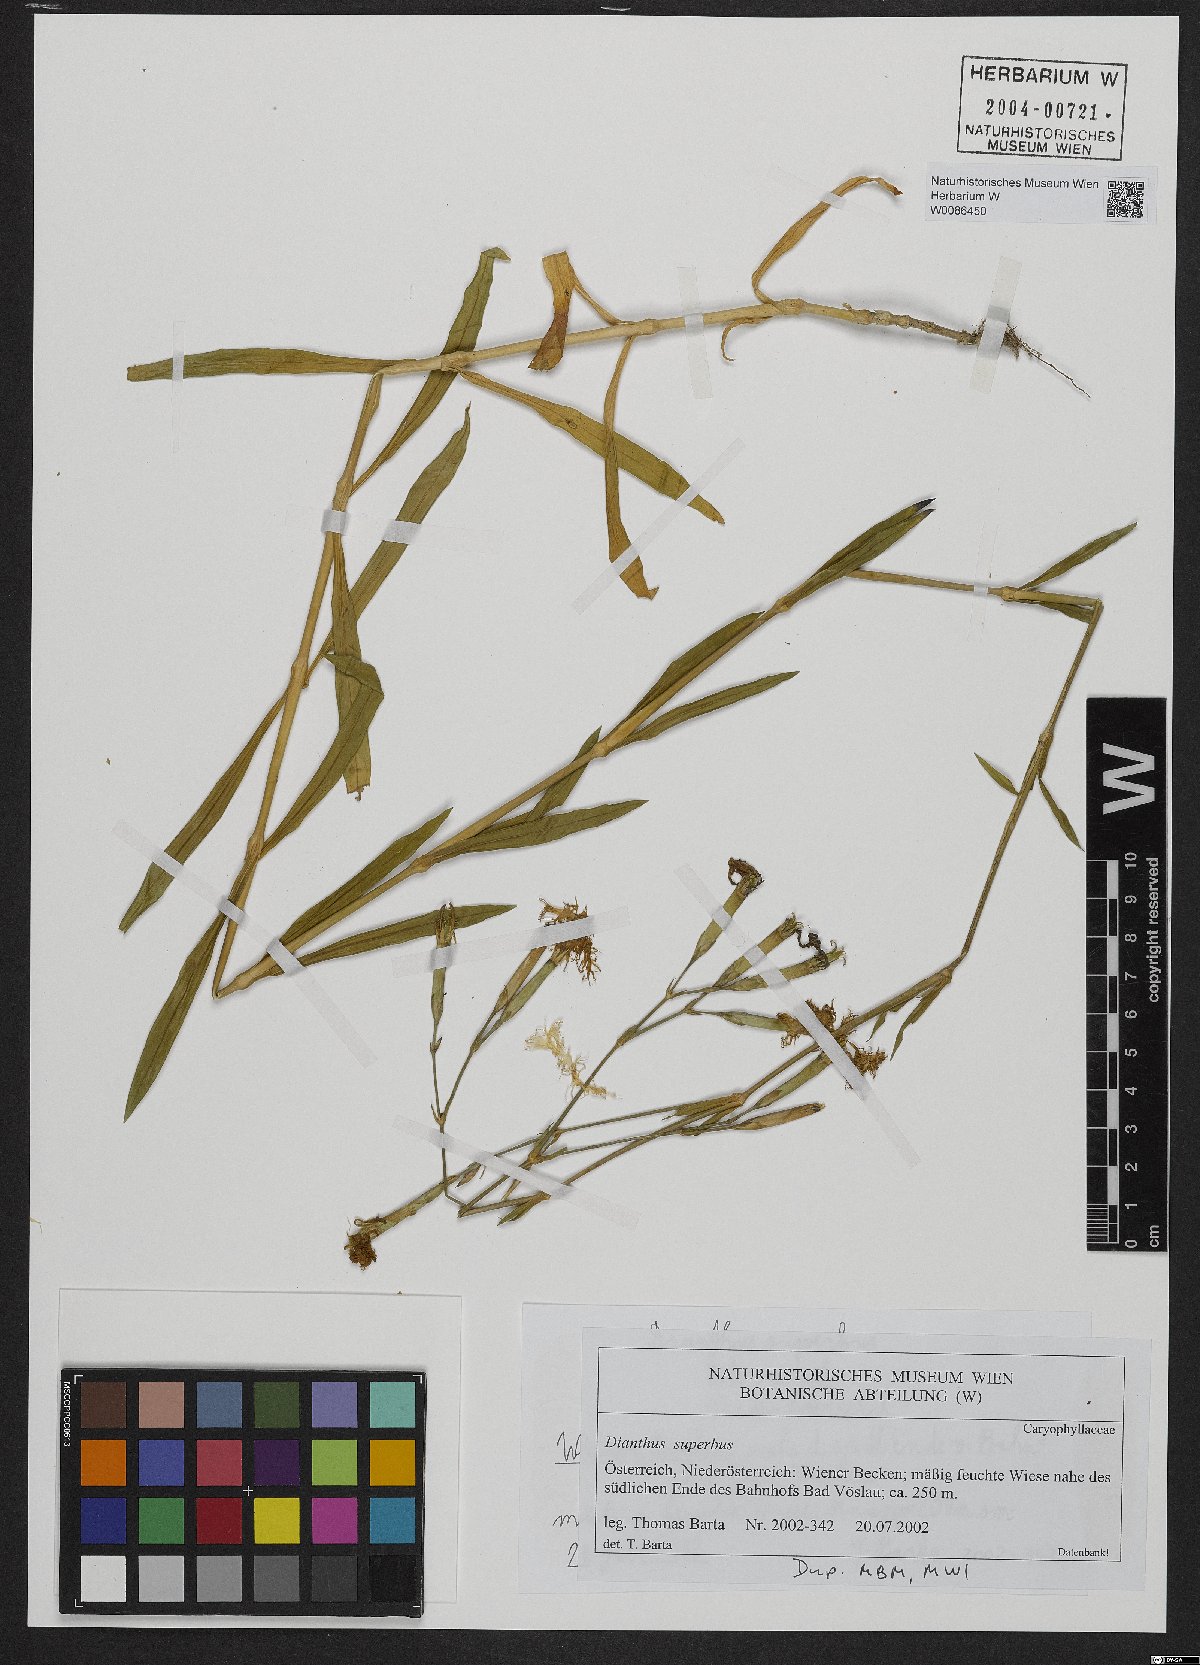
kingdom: Plantae
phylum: Tracheophyta
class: Magnoliopsida
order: Caryophyllales
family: Caryophyllaceae
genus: Dianthus
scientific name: Dianthus superbus
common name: Fringed pink
